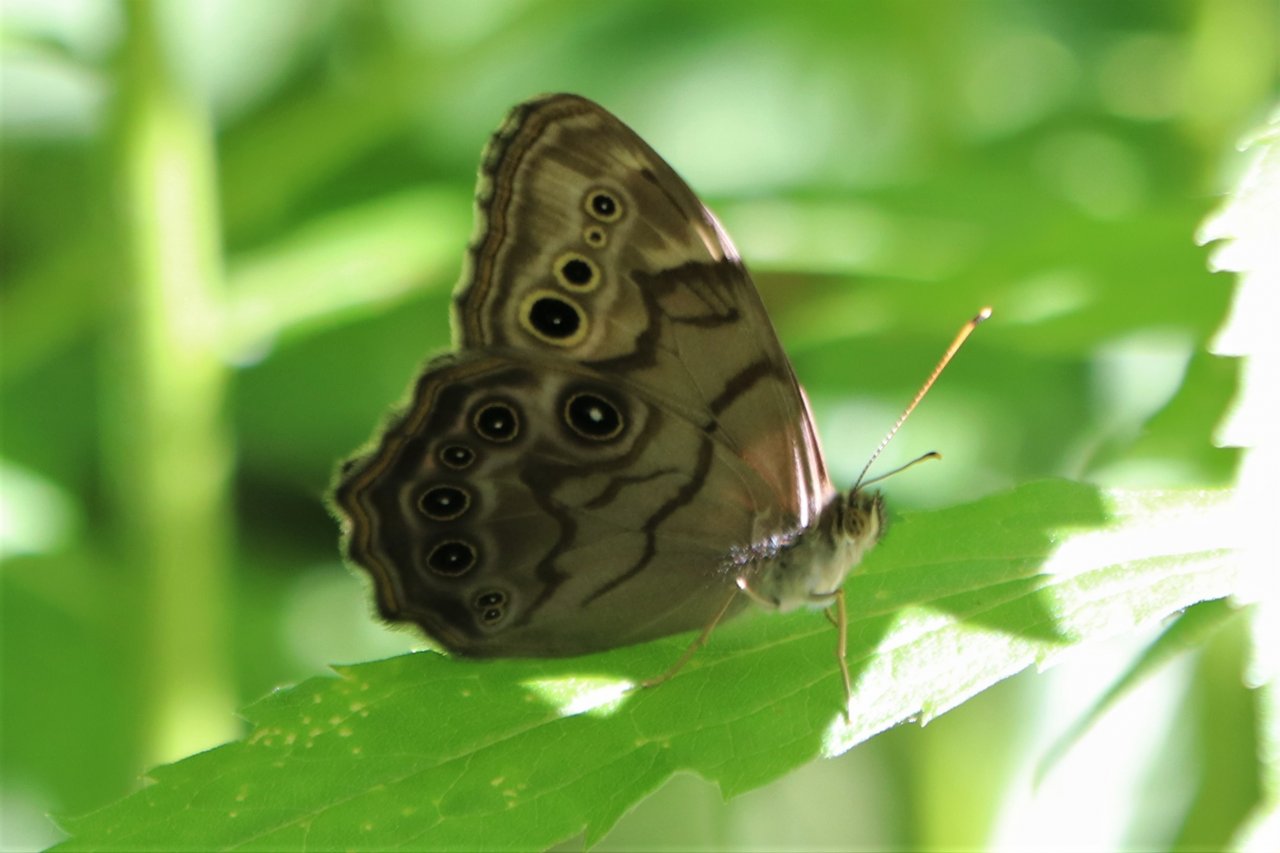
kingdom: Animalia
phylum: Arthropoda
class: Insecta
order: Lepidoptera
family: Nymphalidae
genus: Lethe
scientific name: Lethe anthedon
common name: Northern Pearly-Eye
